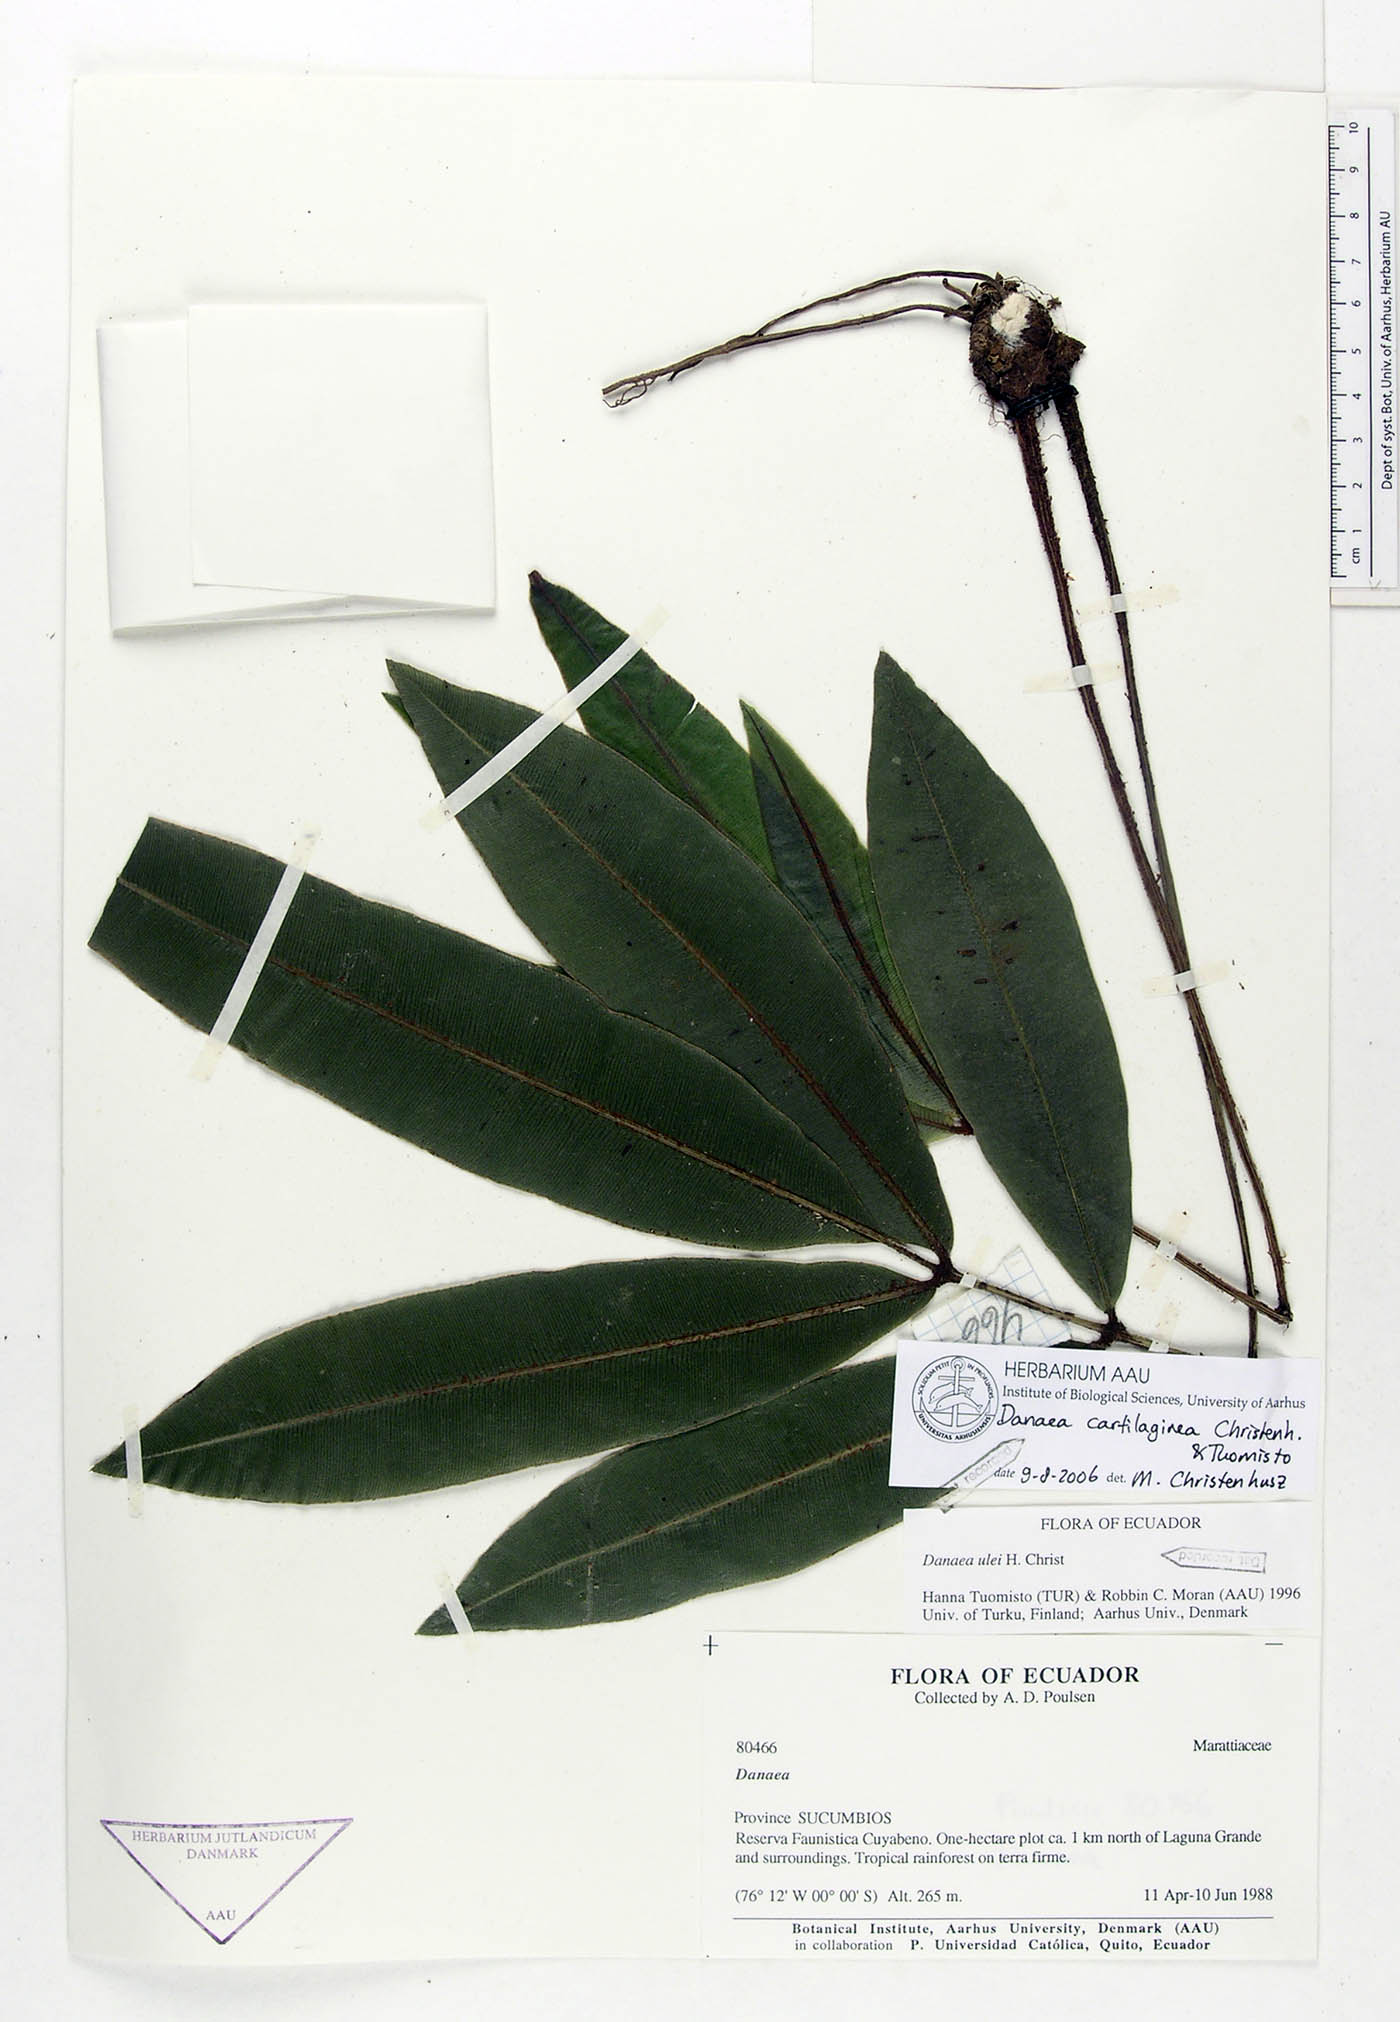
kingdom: Plantae
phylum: Tracheophyta
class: Polypodiopsida
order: Marattiales
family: Marattiaceae
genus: Danaea
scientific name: Danaea cartilaginea
